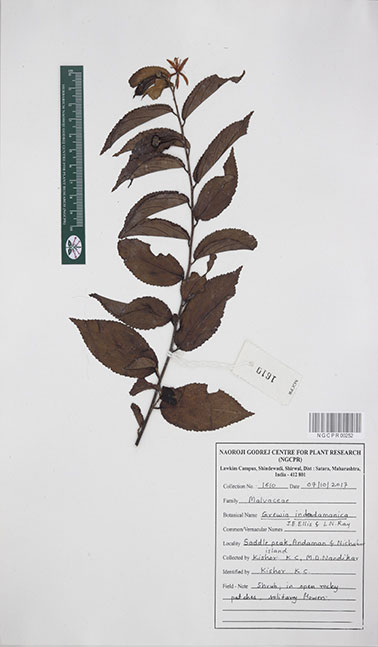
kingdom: Plantae
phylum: Tracheophyta
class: Magnoliopsida
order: Malvales
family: Malvaceae
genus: Grewia
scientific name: Grewia indandamanica
